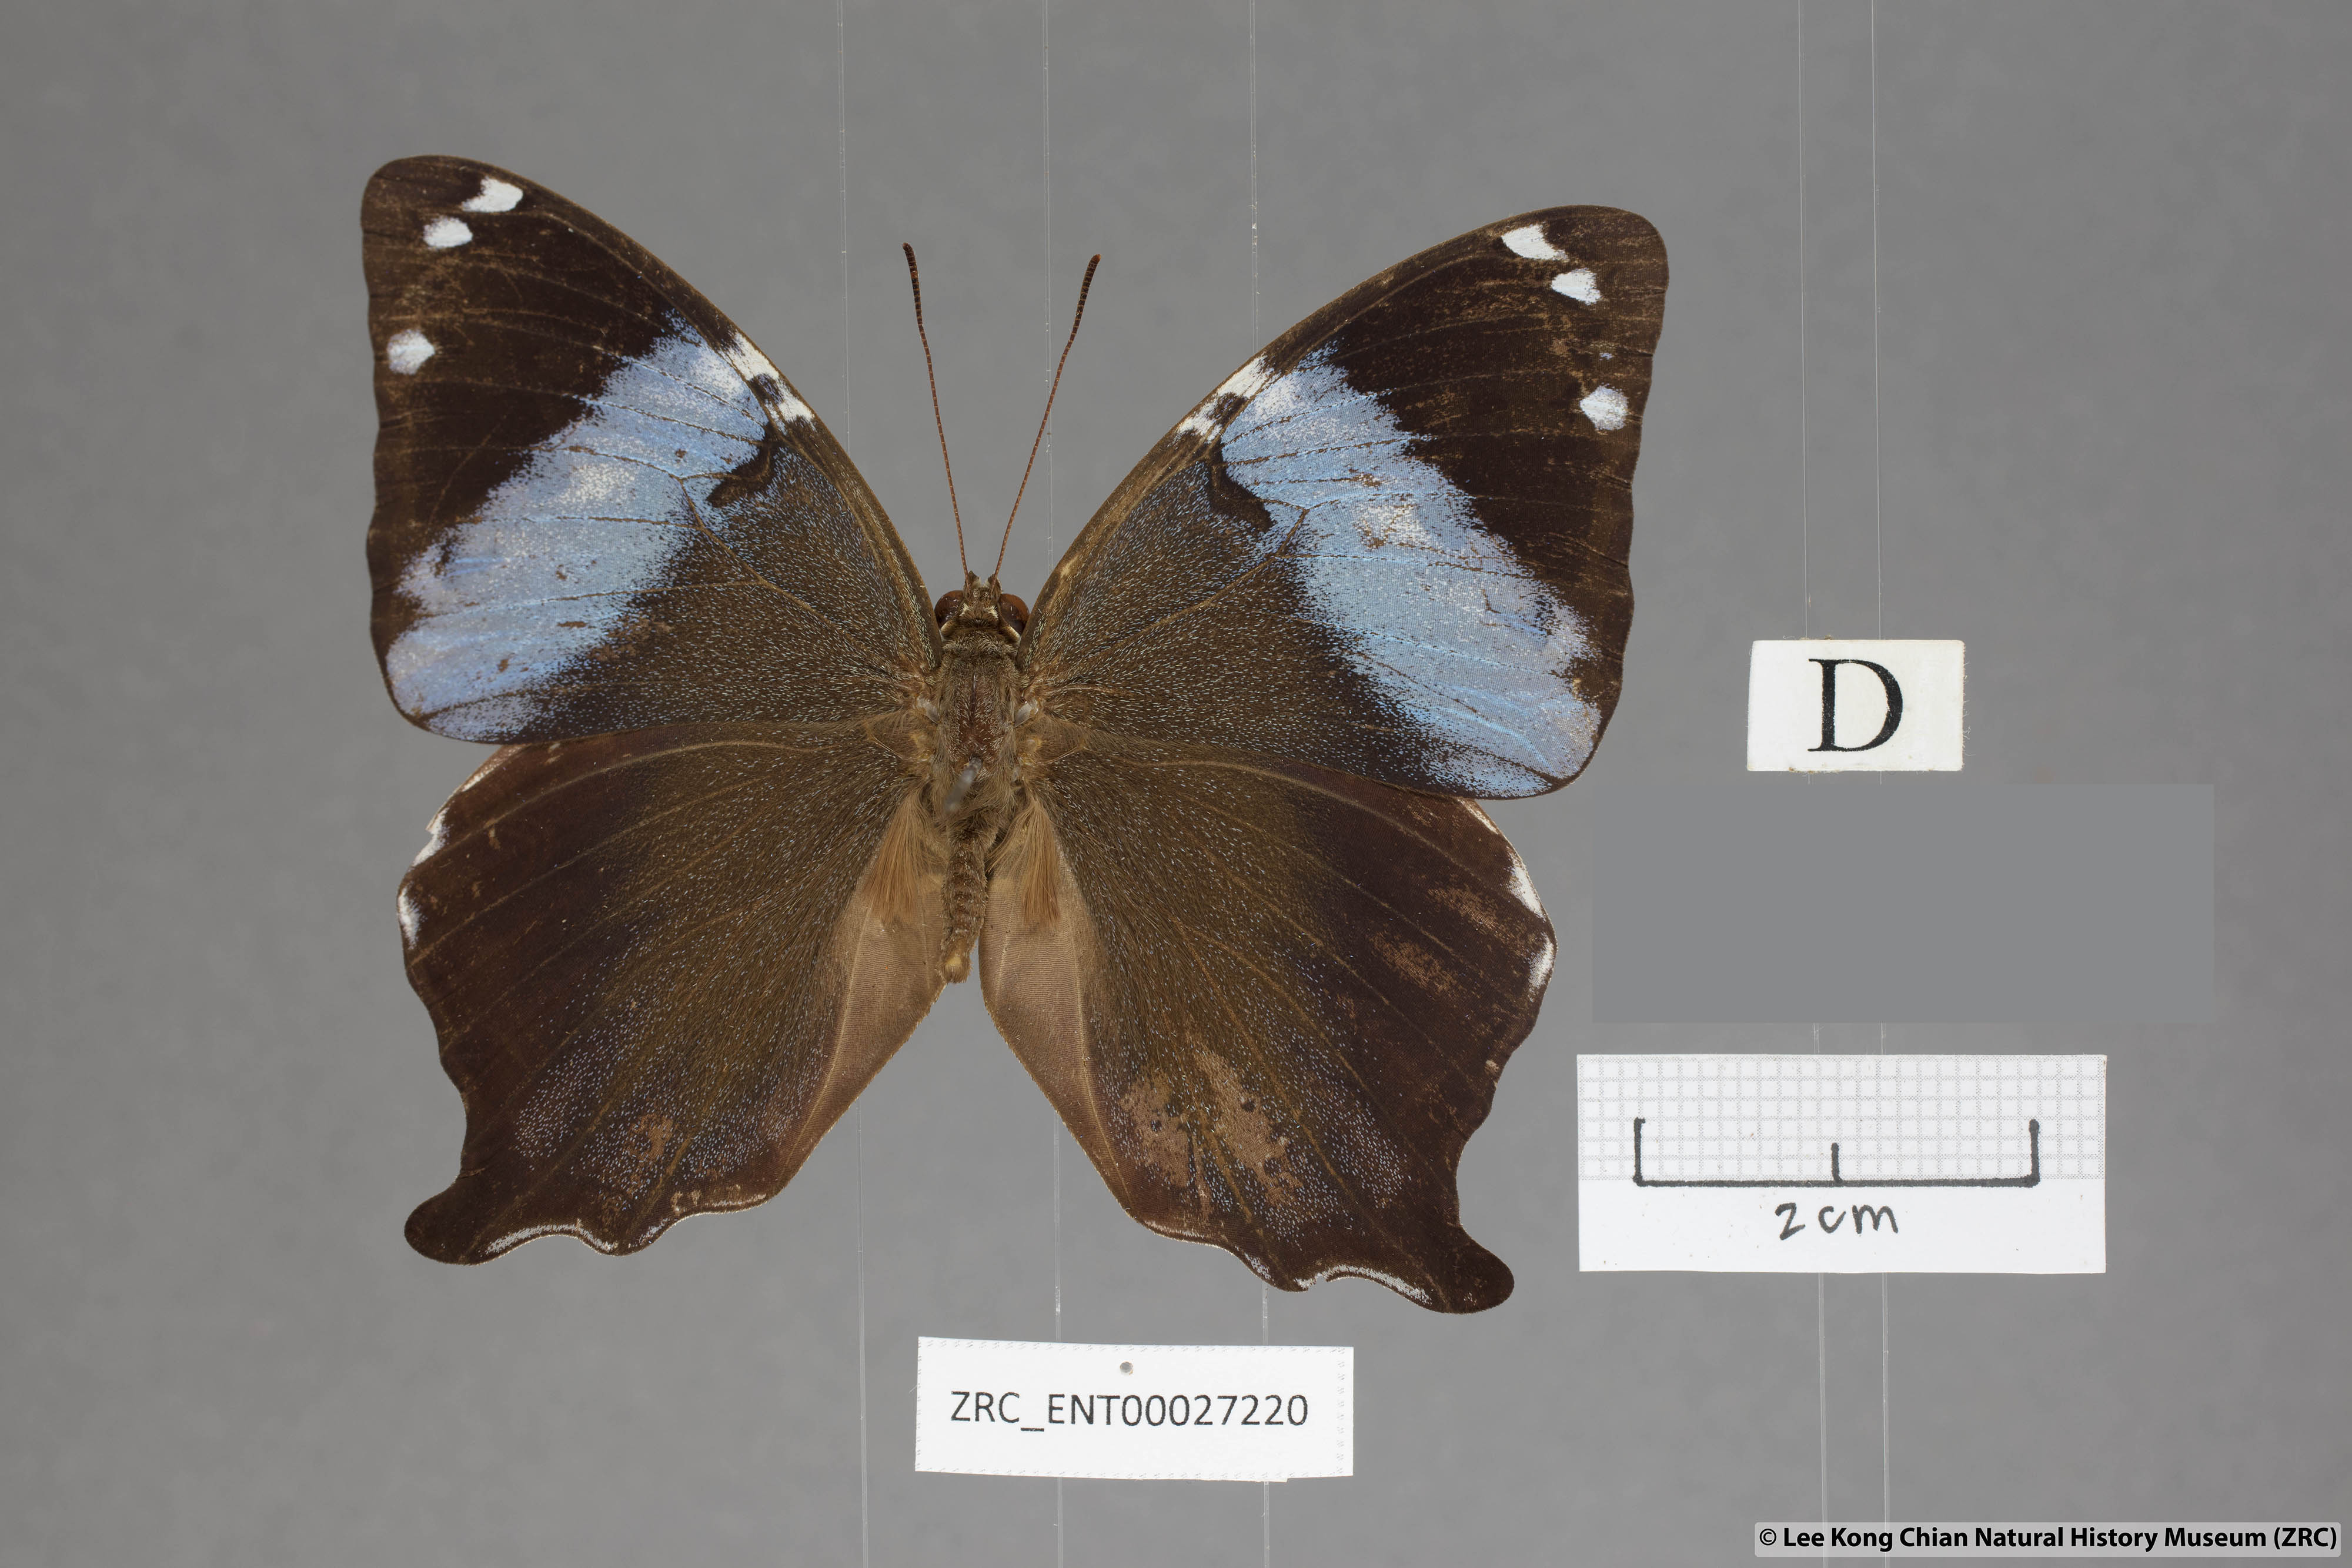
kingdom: Animalia
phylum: Arthropoda
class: Insecta
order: Lepidoptera
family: Nymphalidae
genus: Prothoe
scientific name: Prothoe
